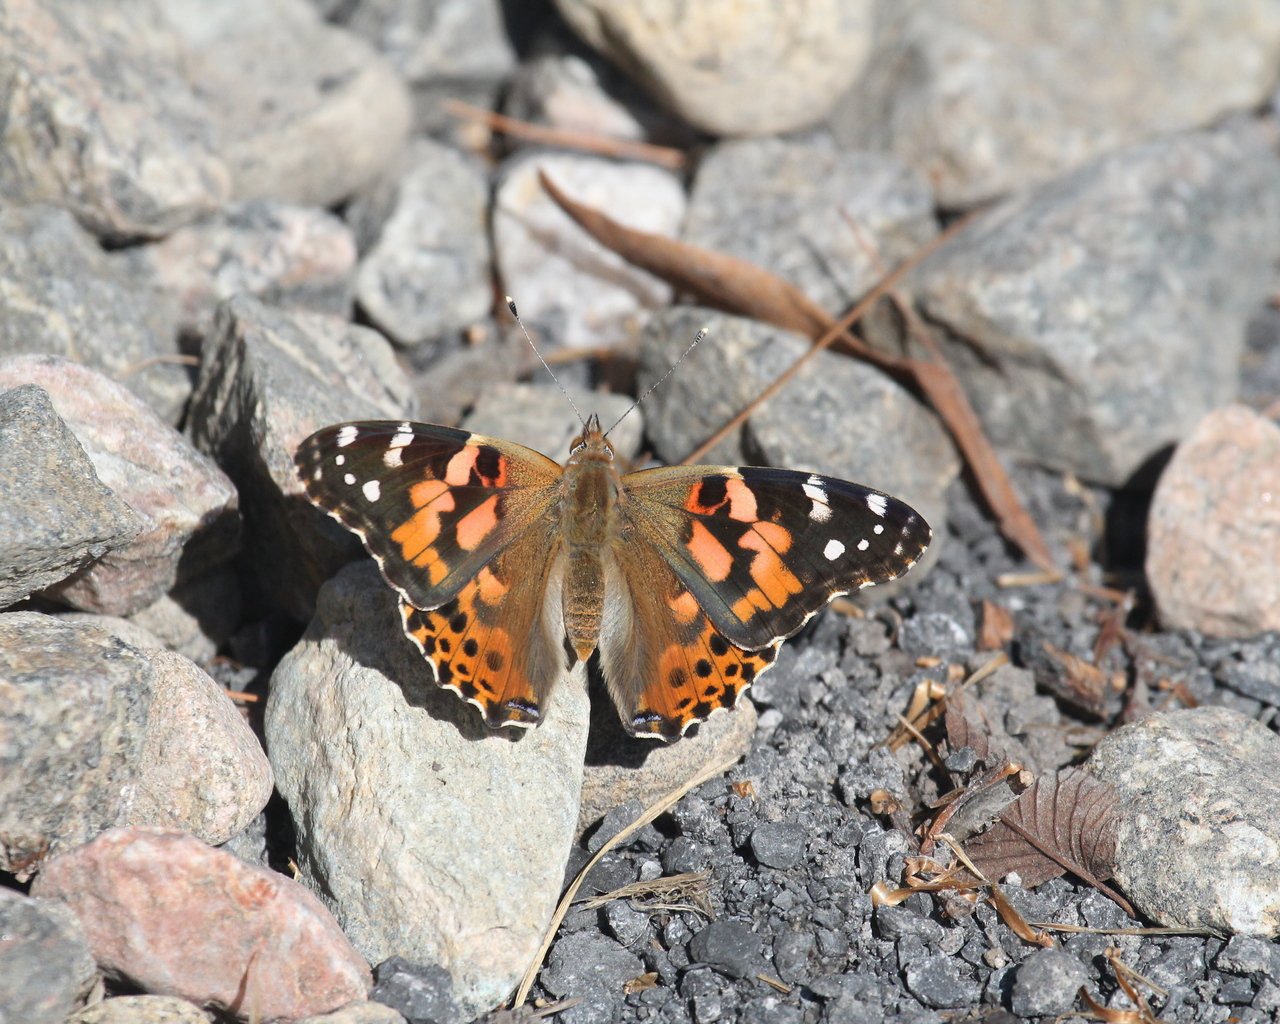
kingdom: Animalia
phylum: Arthropoda
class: Insecta
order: Lepidoptera
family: Nymphalidae
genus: Vanessa
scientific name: Vanessa cardui
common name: Painted Lady
